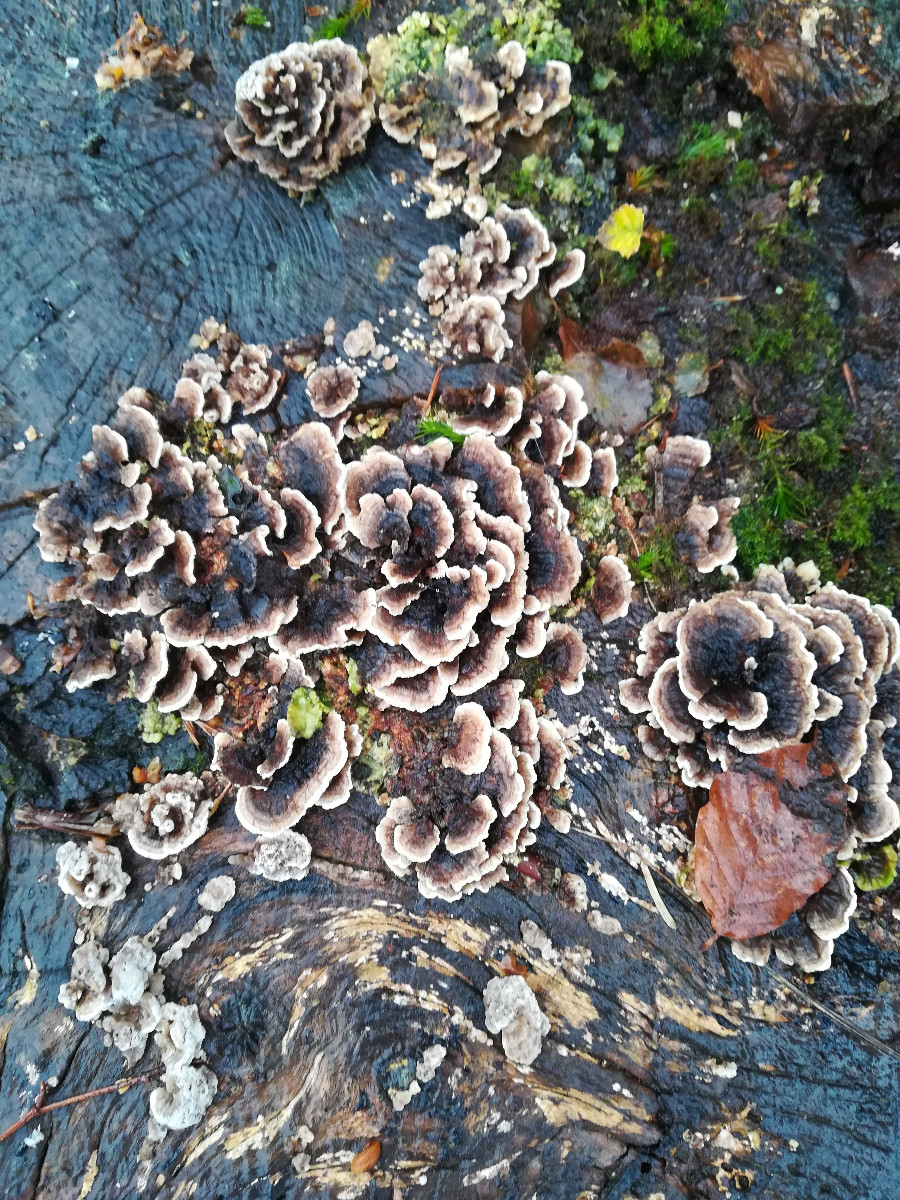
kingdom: Fungi
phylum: Basidiomycota
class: Agaricomycetes
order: Polyporales
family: Polyporaceae
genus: Trametes
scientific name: Trametes versicolor
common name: broget læderporesvamp
